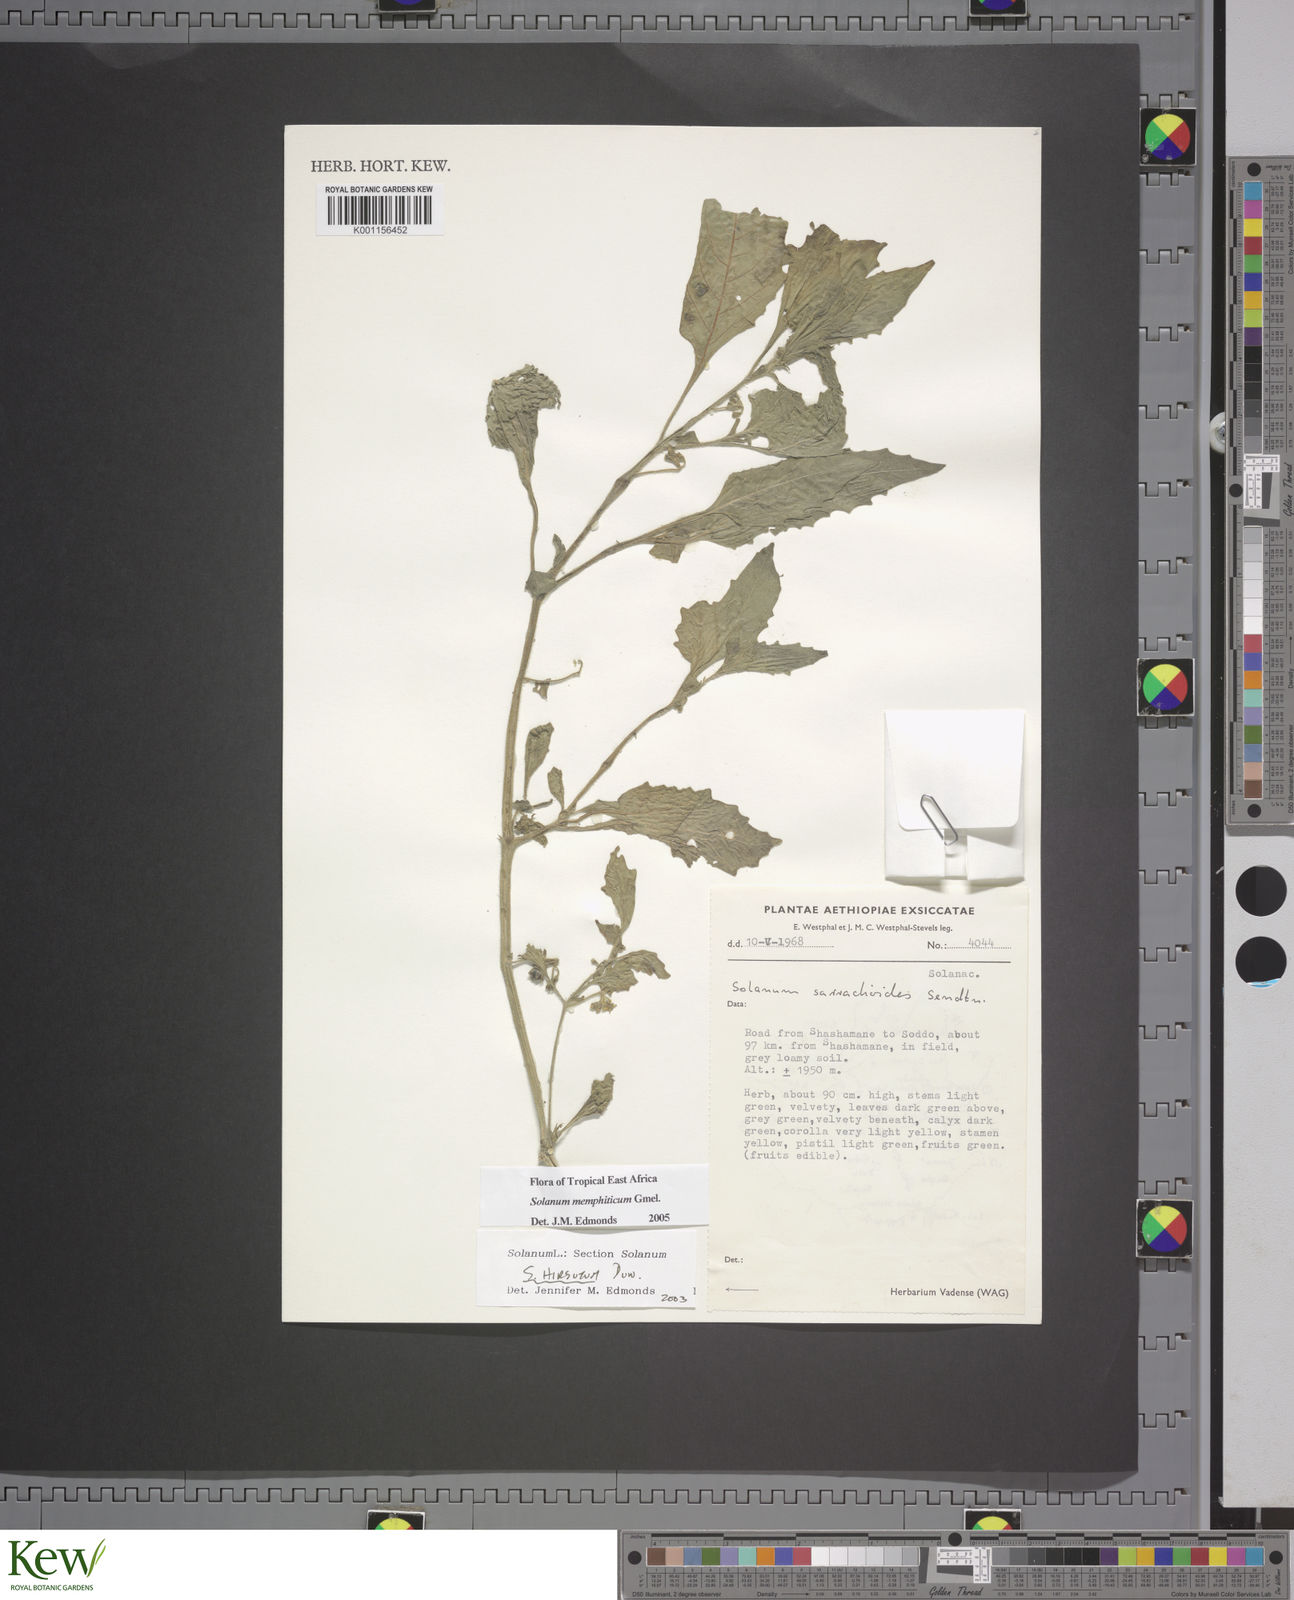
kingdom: Plantae
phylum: Tracheophyta
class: Magnoliopsida
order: Solanales
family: Solanaceae
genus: Solanum
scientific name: Solanum memphiticum
